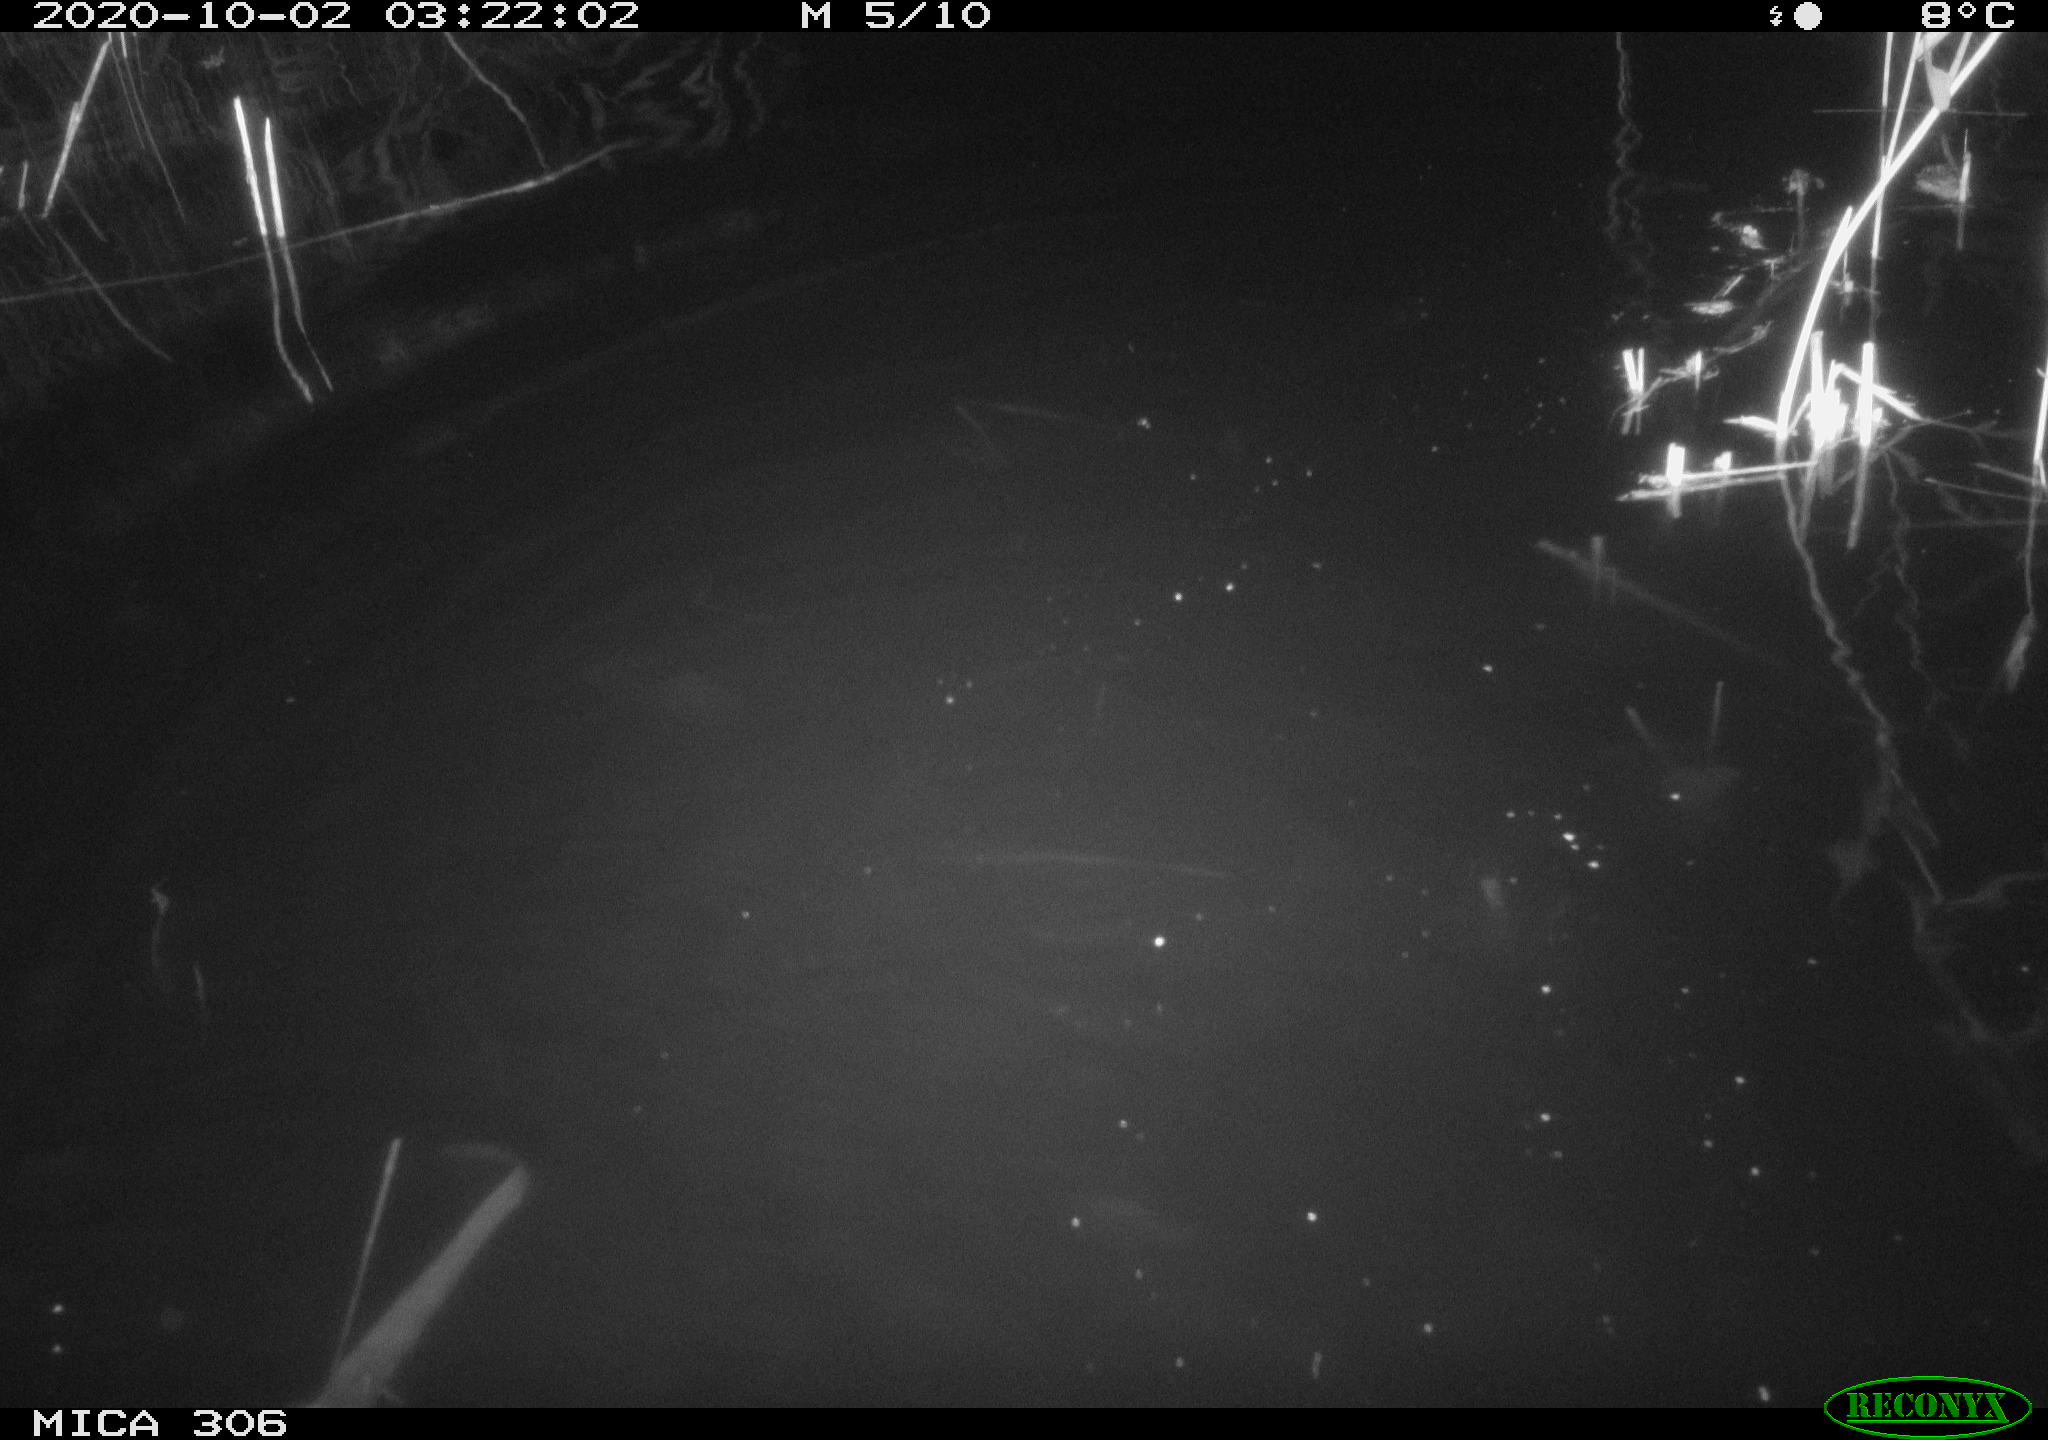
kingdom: Animalia
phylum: Chordata
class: Mammalia
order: Rodentia
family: Muridae
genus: Rattus
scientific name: Rattus norvegicus
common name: Brown rat
